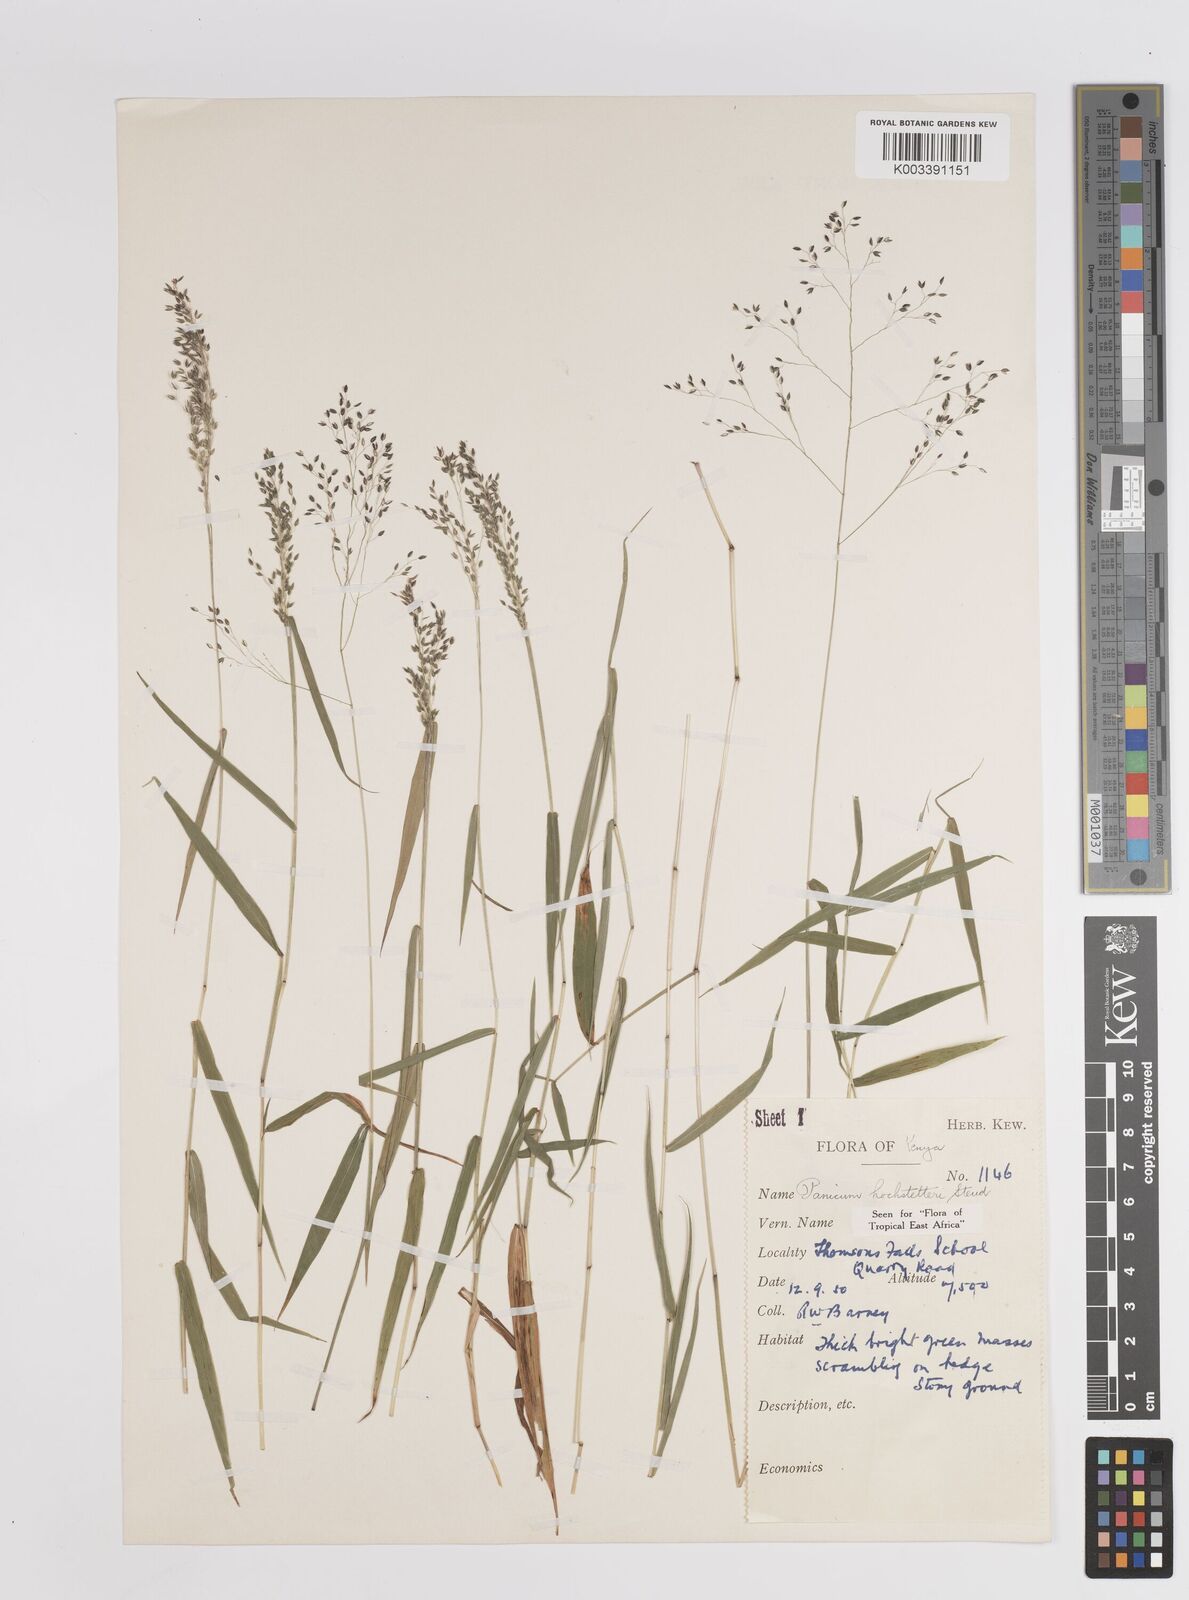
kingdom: Plantae
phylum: Tracheophyta
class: Liliopsida
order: Poales
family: Poaceae
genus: Panicum
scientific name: Panicum hochstetteri
